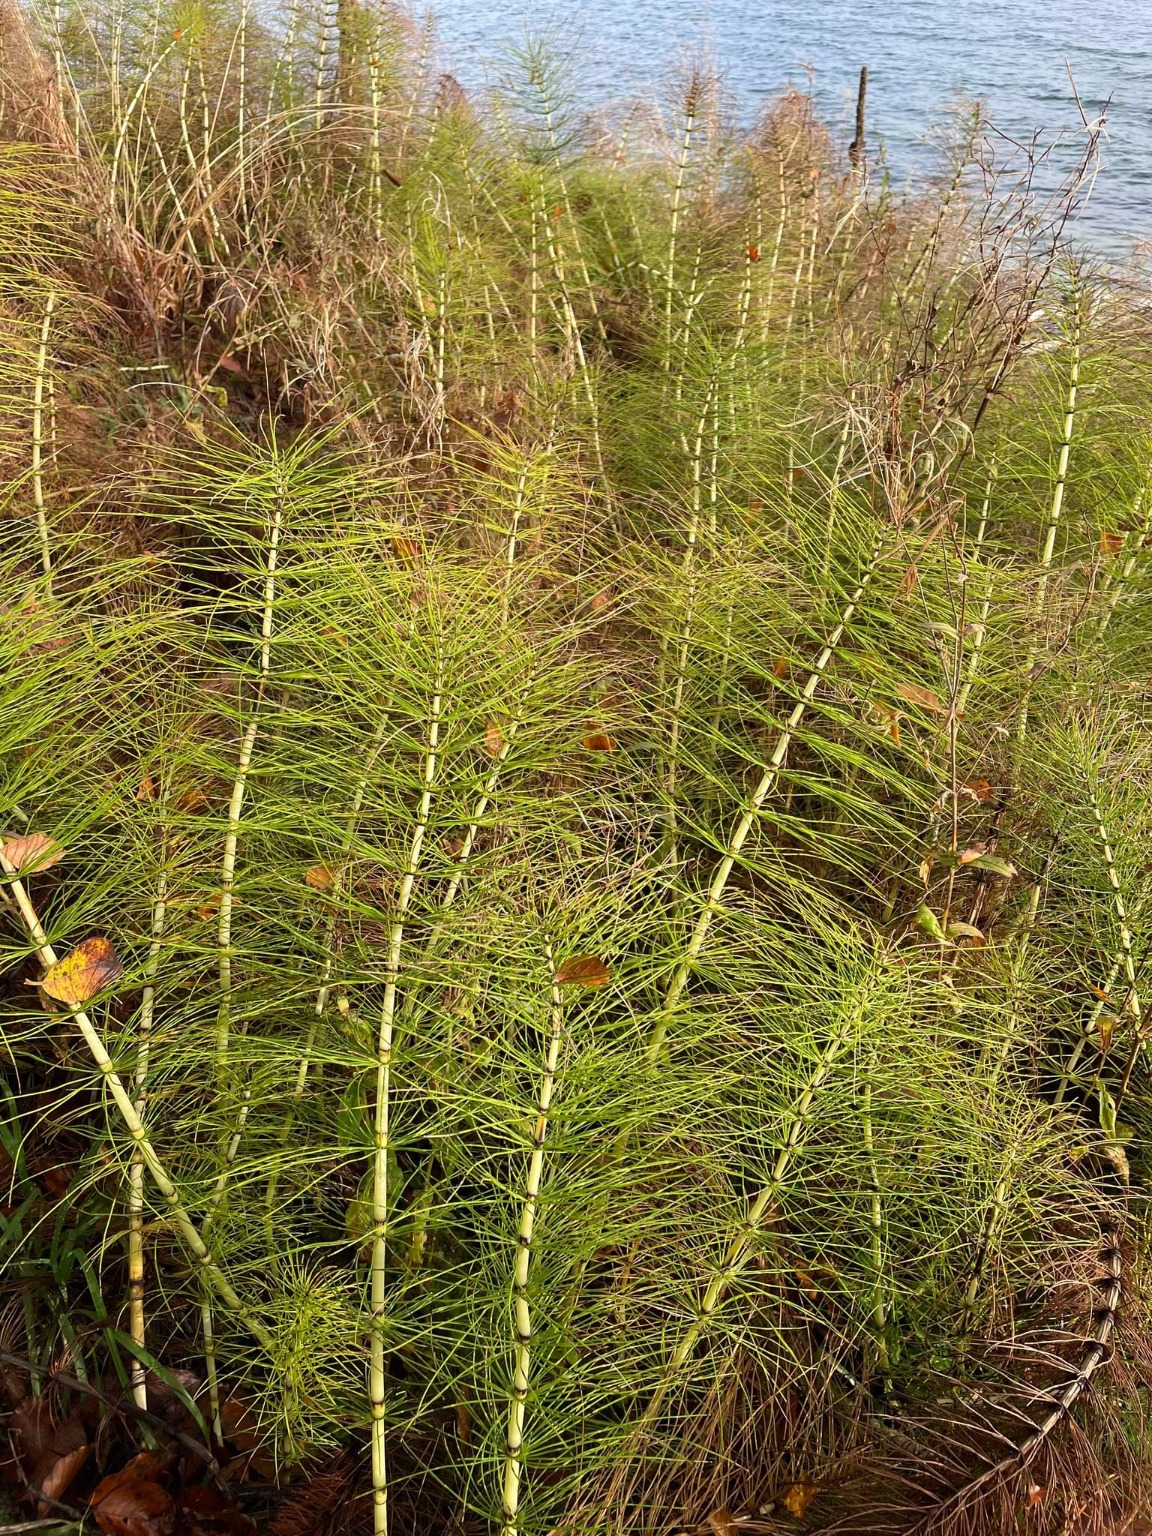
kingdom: Plantae
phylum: Tracheophyta
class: Polypodiopsida
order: Equisetales
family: Equisetaceae
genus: Equisetum
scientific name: Equisetum telmateia
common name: Elfenbens-padderok
